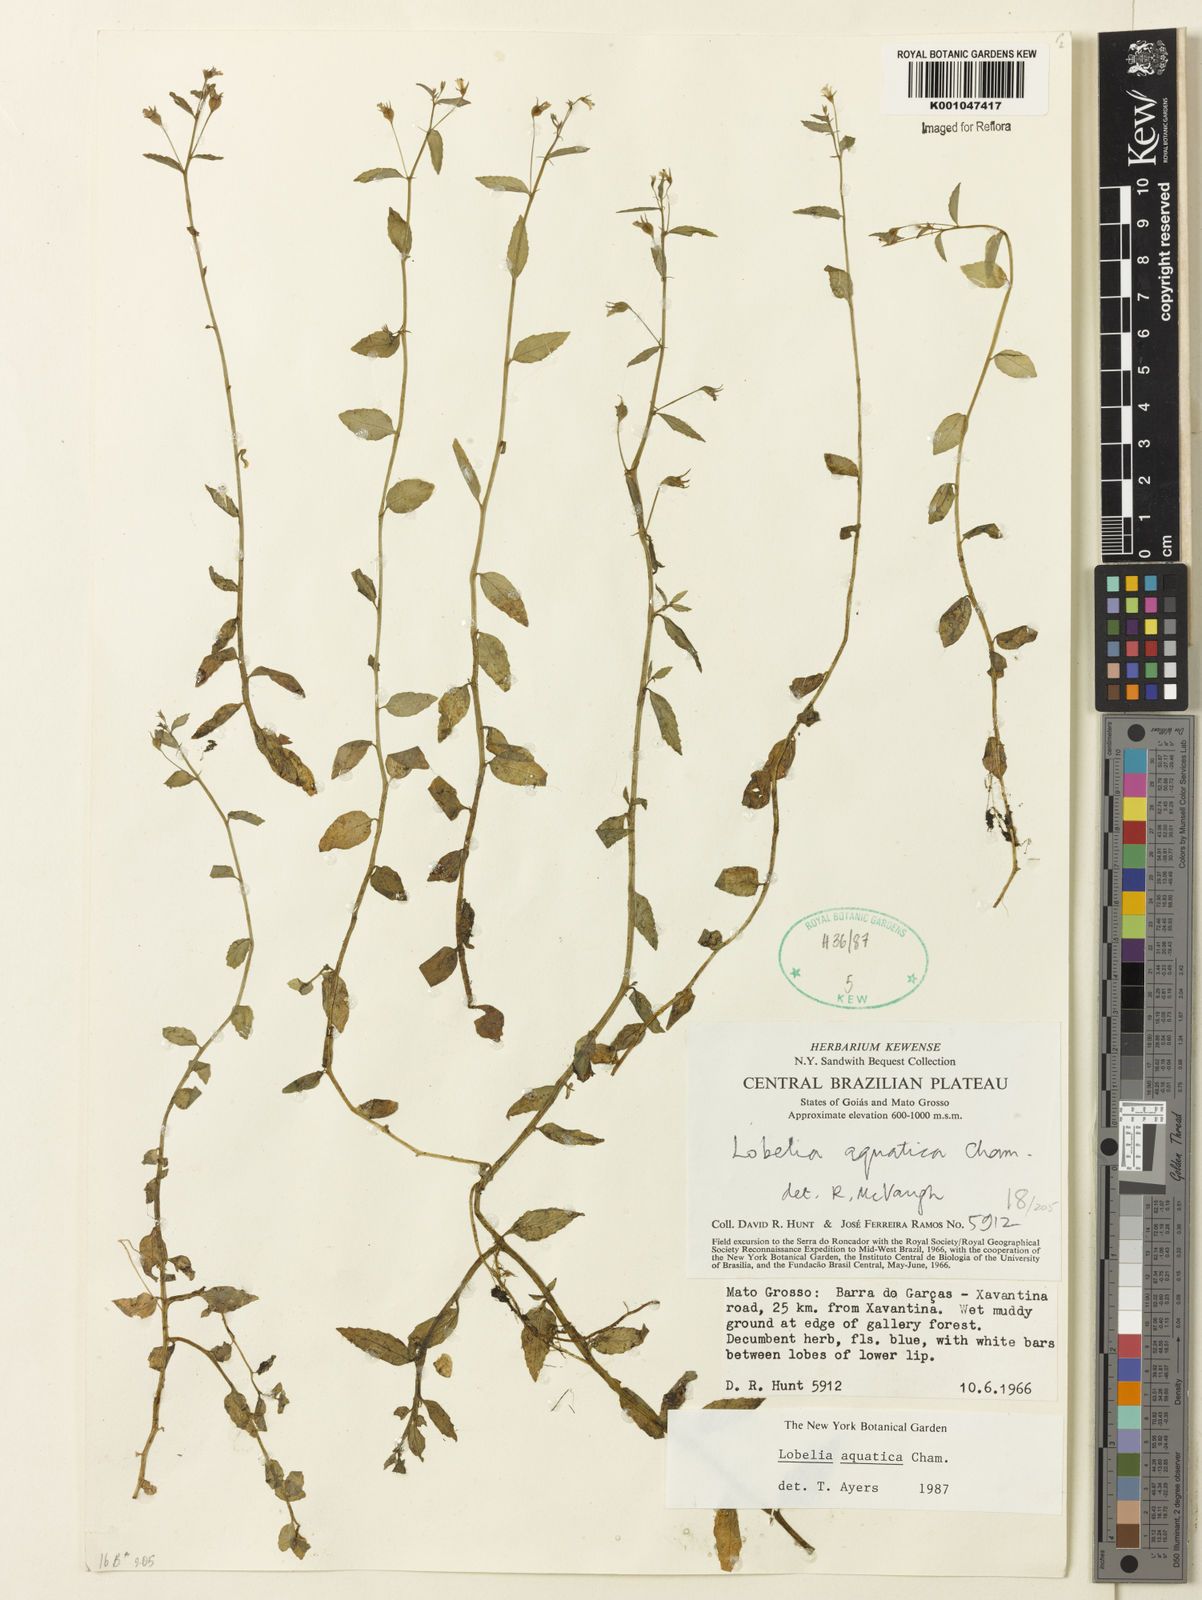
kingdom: Plantae
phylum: Tracheophyta
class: Magnoliopsida
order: Asterales
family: Campanulaceae
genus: Lobelia
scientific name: Lobelia aquatica
